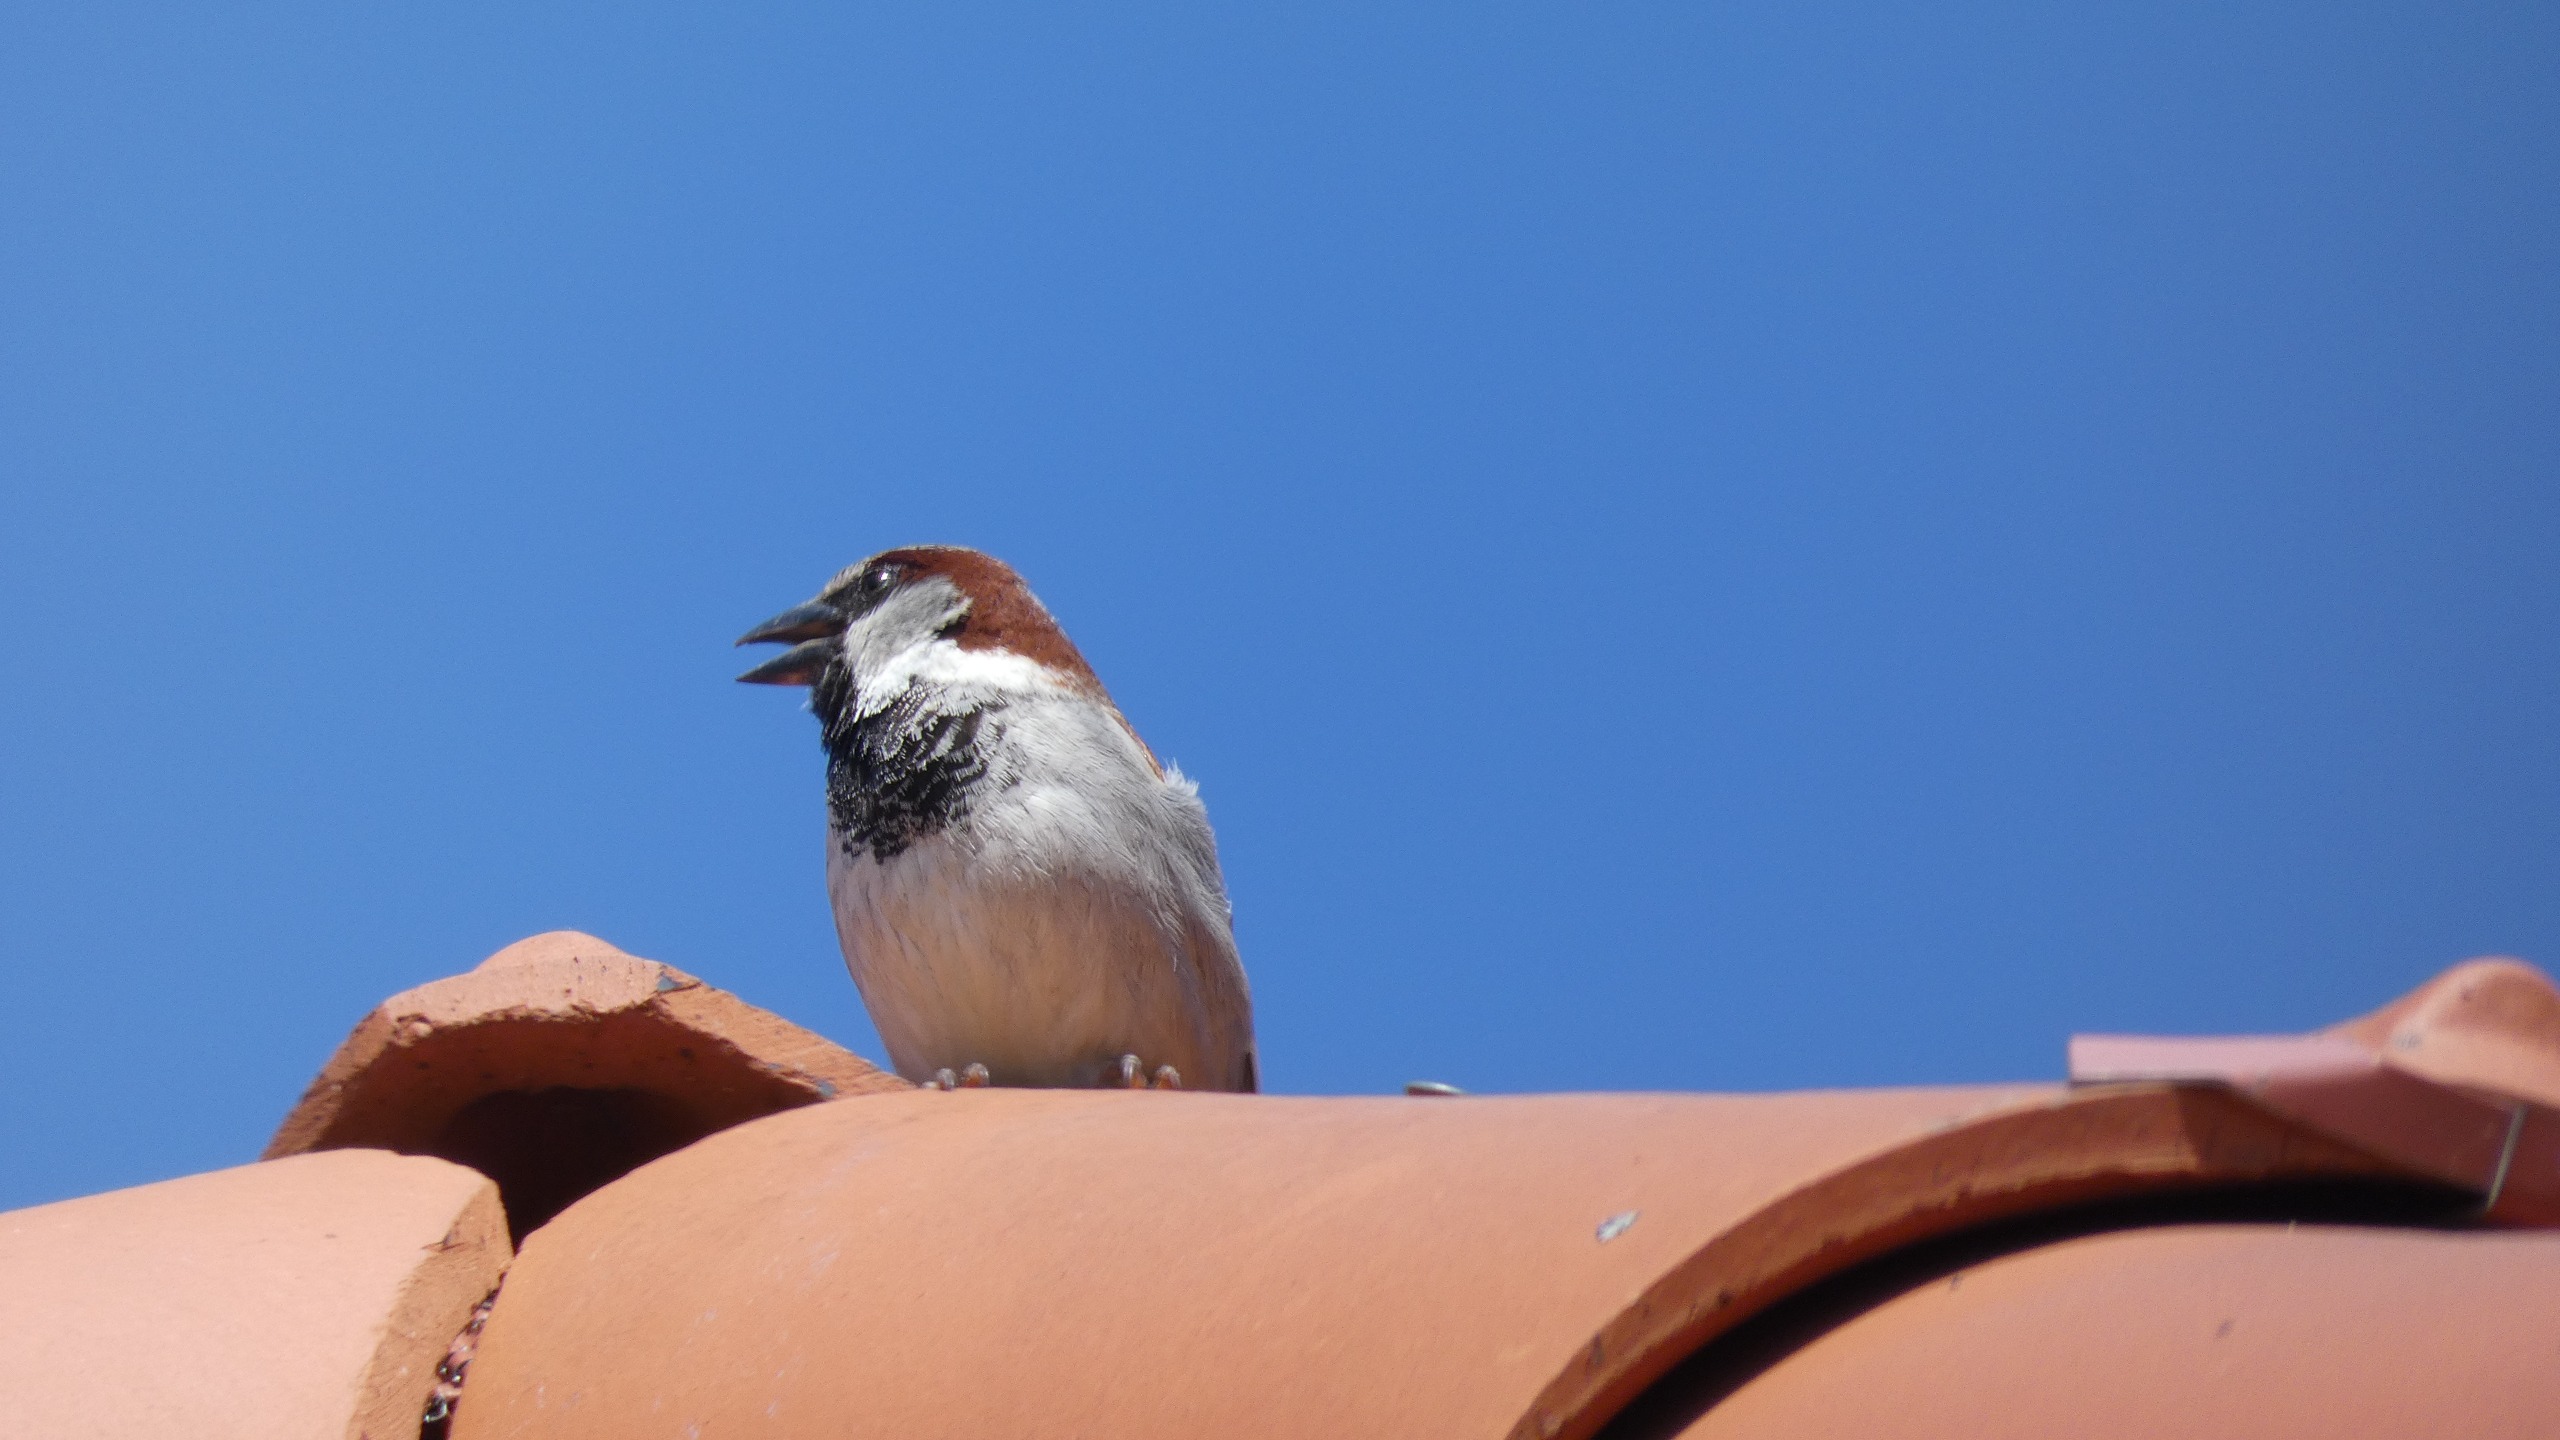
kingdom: Animalia
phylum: Chordata
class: Aves
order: Passeriformes
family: Passeridae
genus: Passer
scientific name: Passer domesticus
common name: Gråspurv
